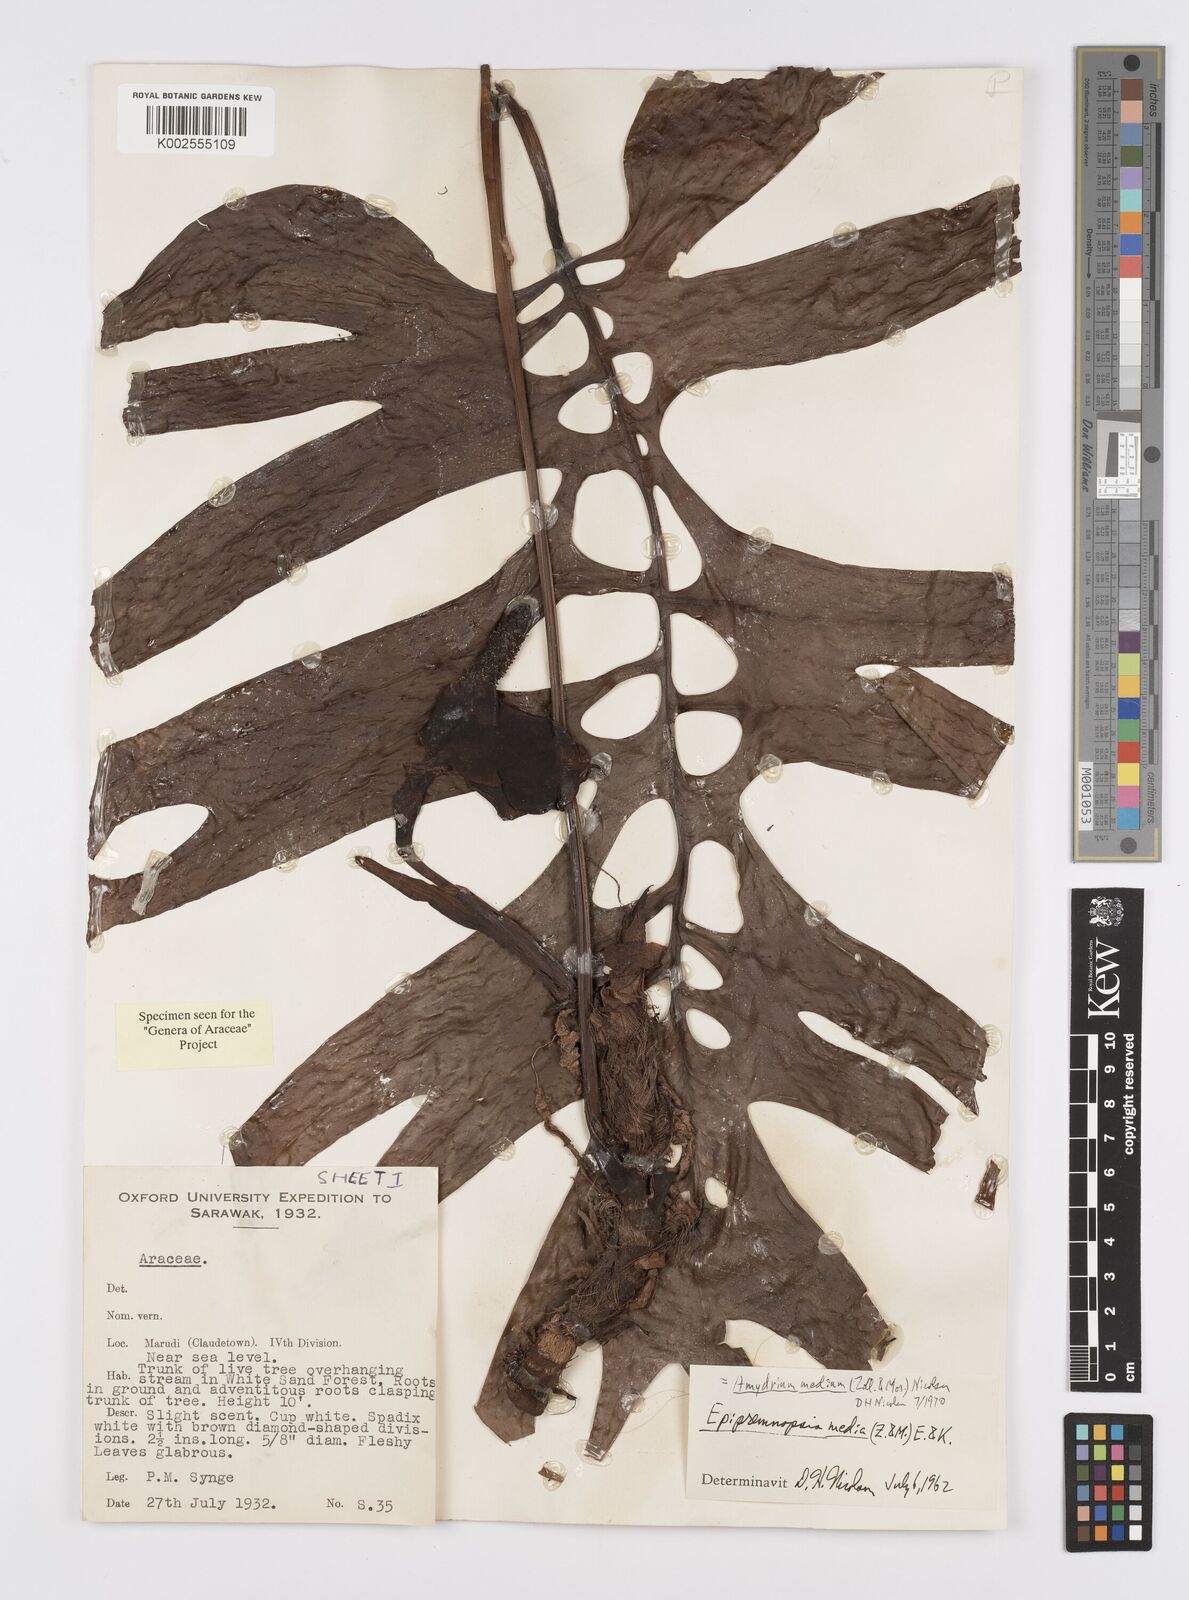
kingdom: Plantae
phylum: Tracheophyta
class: Liliopsida
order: Alismatales
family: Araceae
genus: Amydrium
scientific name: Amydrium medium
